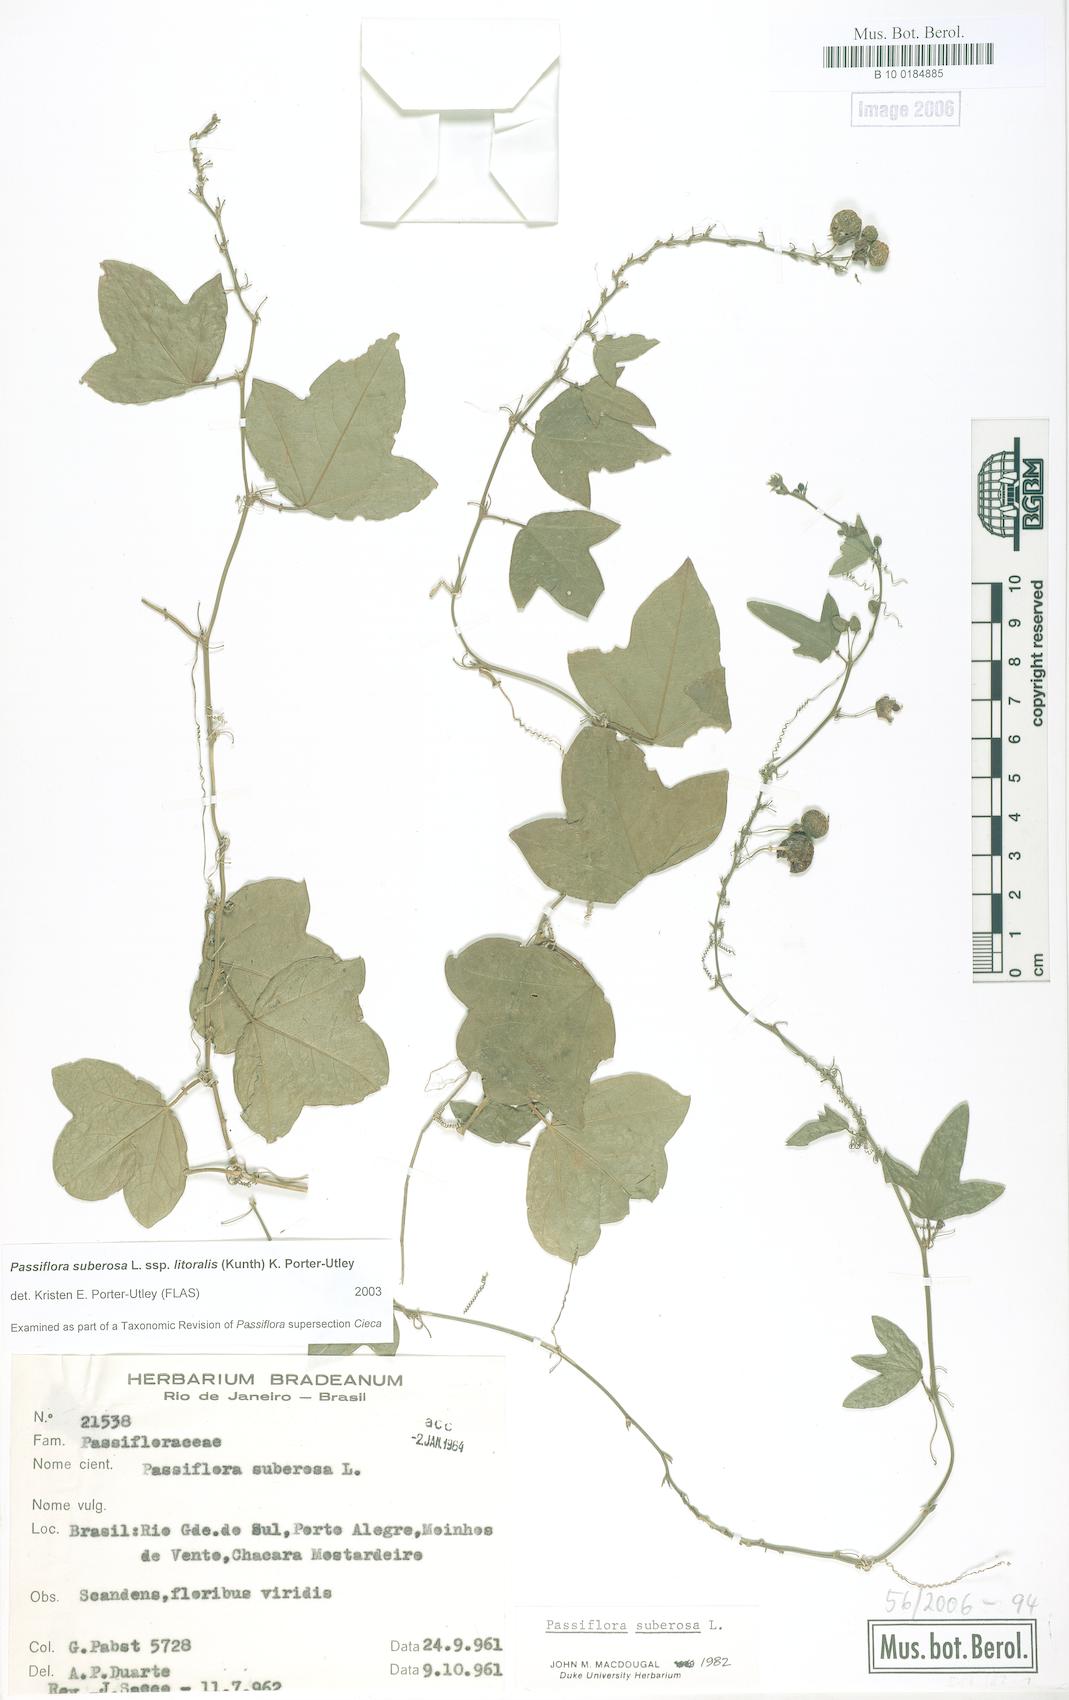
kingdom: Plantae
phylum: Tracheophyta
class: Magnoliopsida
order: Malpighiales
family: Passifloraceae
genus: Passiflora
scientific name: Passiflora suberosa
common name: Wild passionfruit
